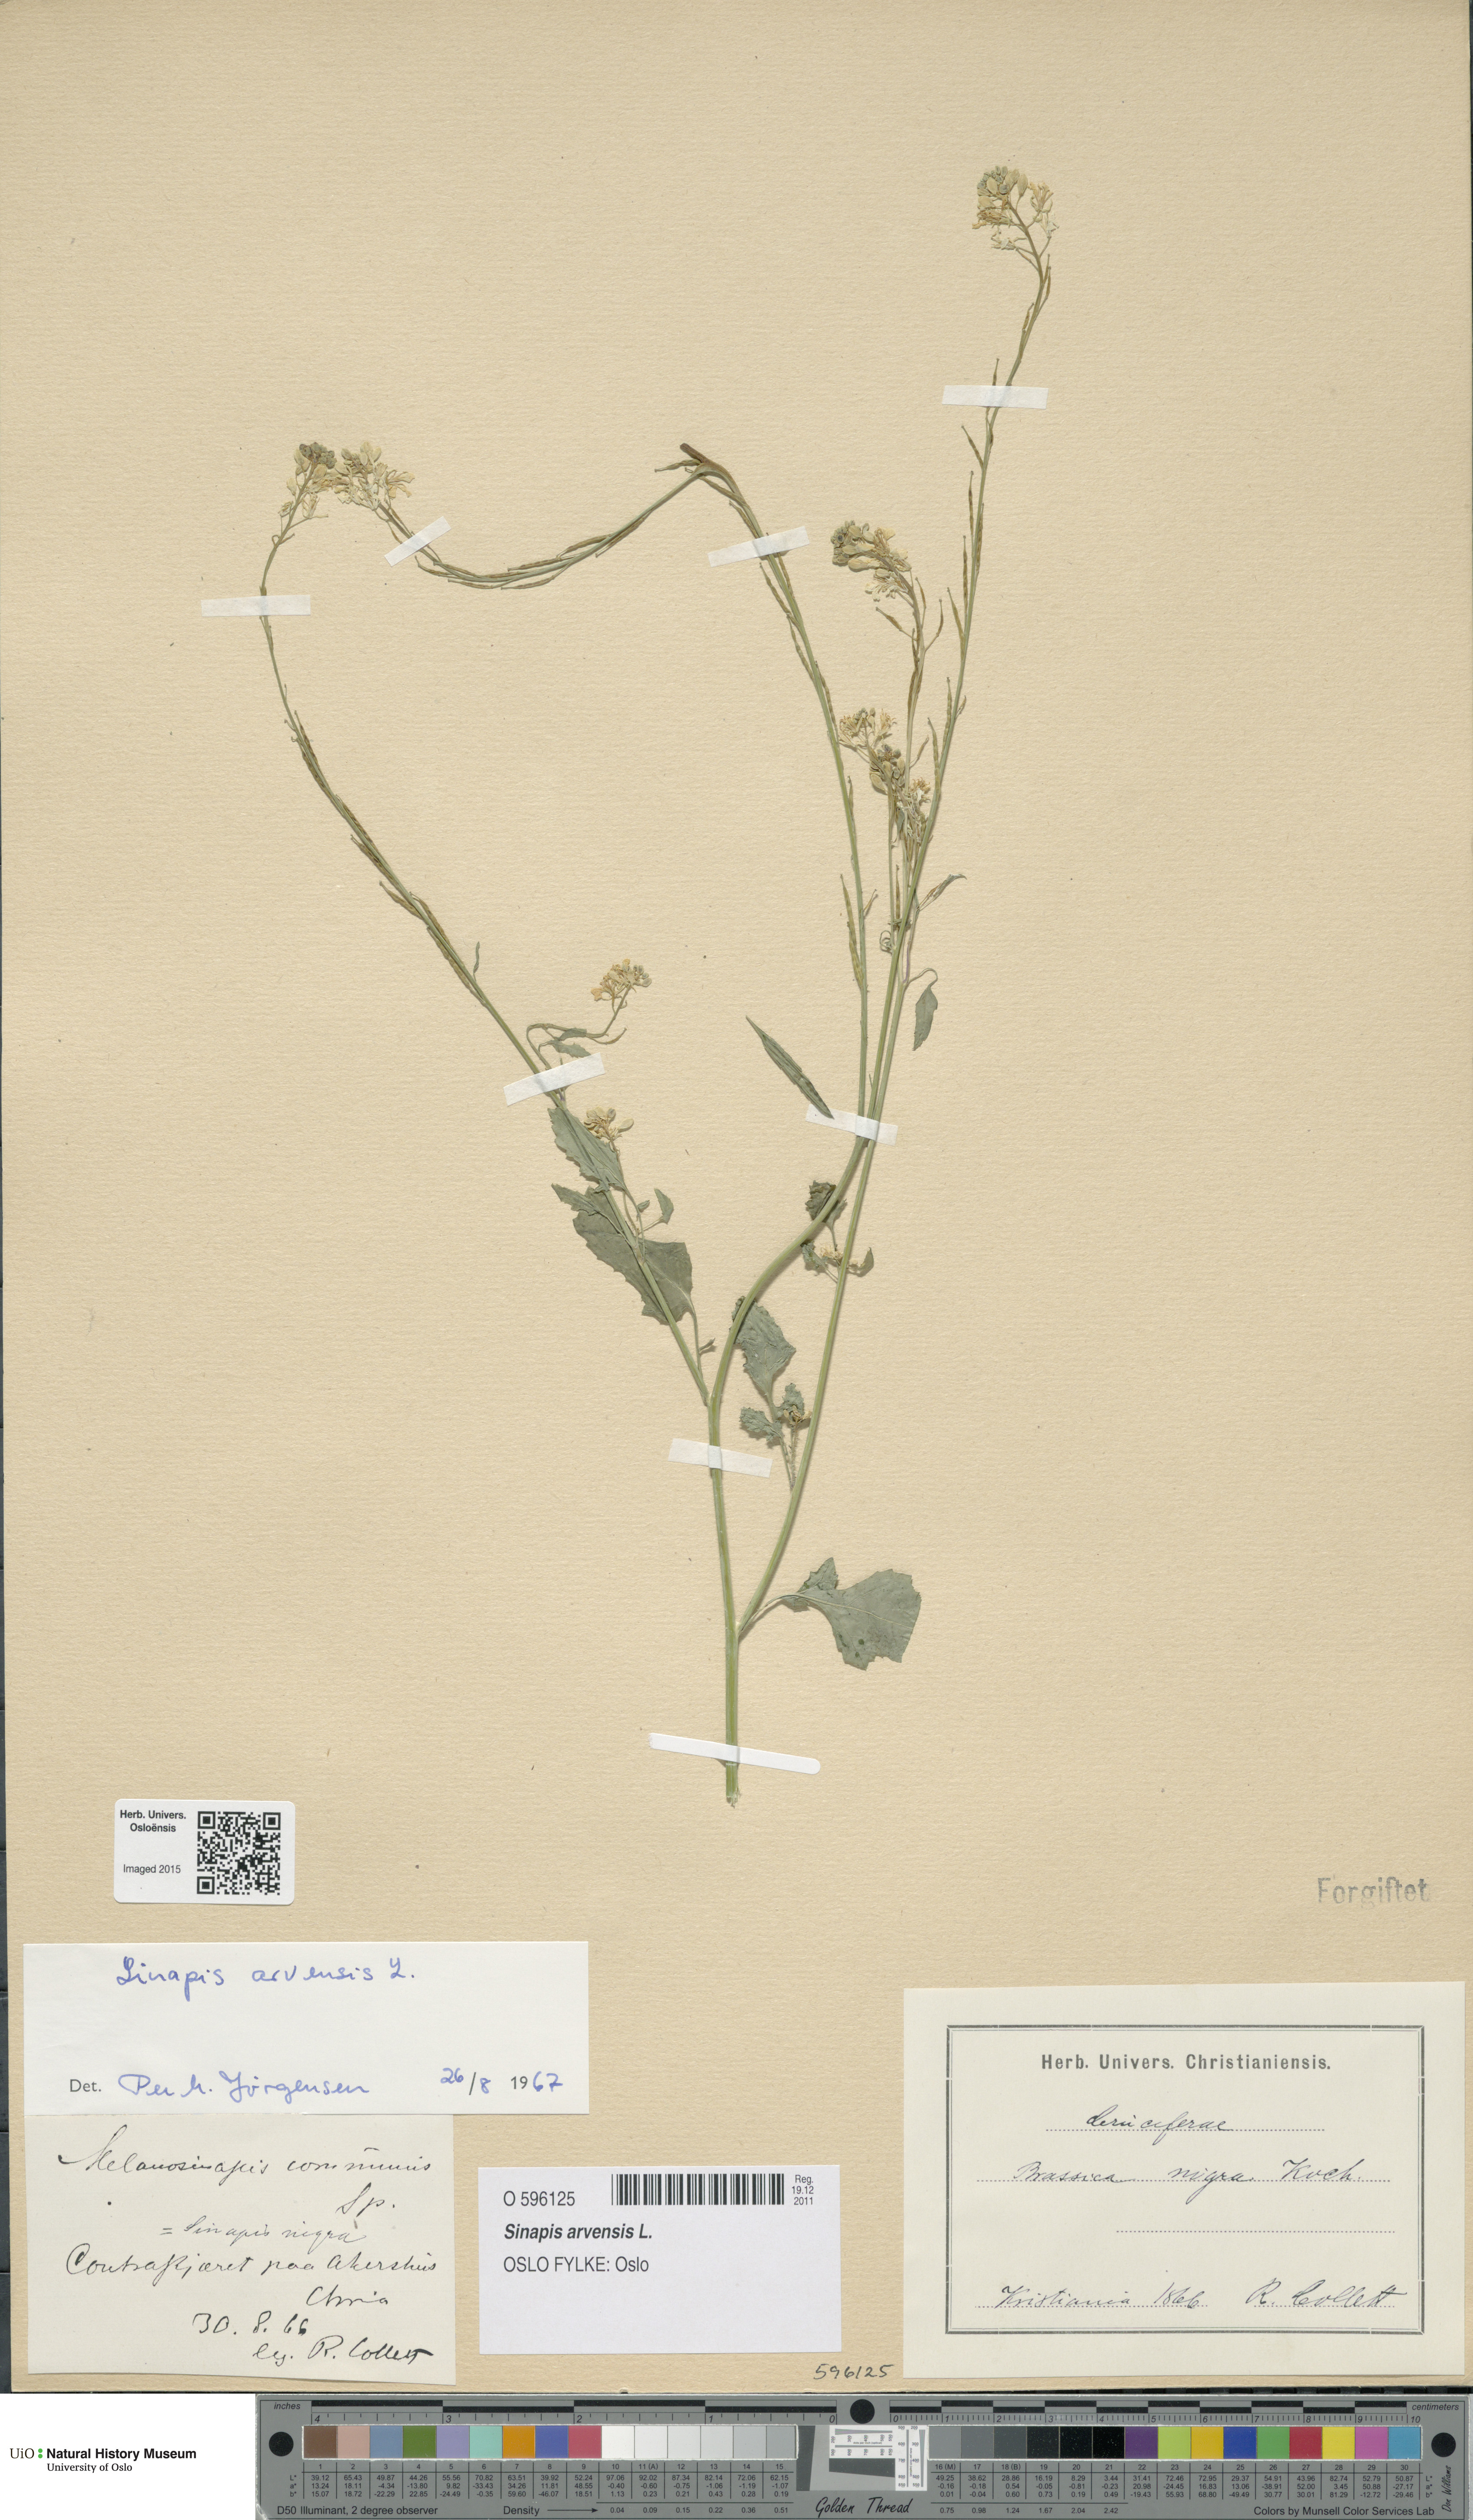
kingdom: Plantae
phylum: Tracheophyta
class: Magnoliopsida
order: Brassicales
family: Brassicaceae
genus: Sinapis
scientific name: Sinapis arvensis
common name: Charlock
